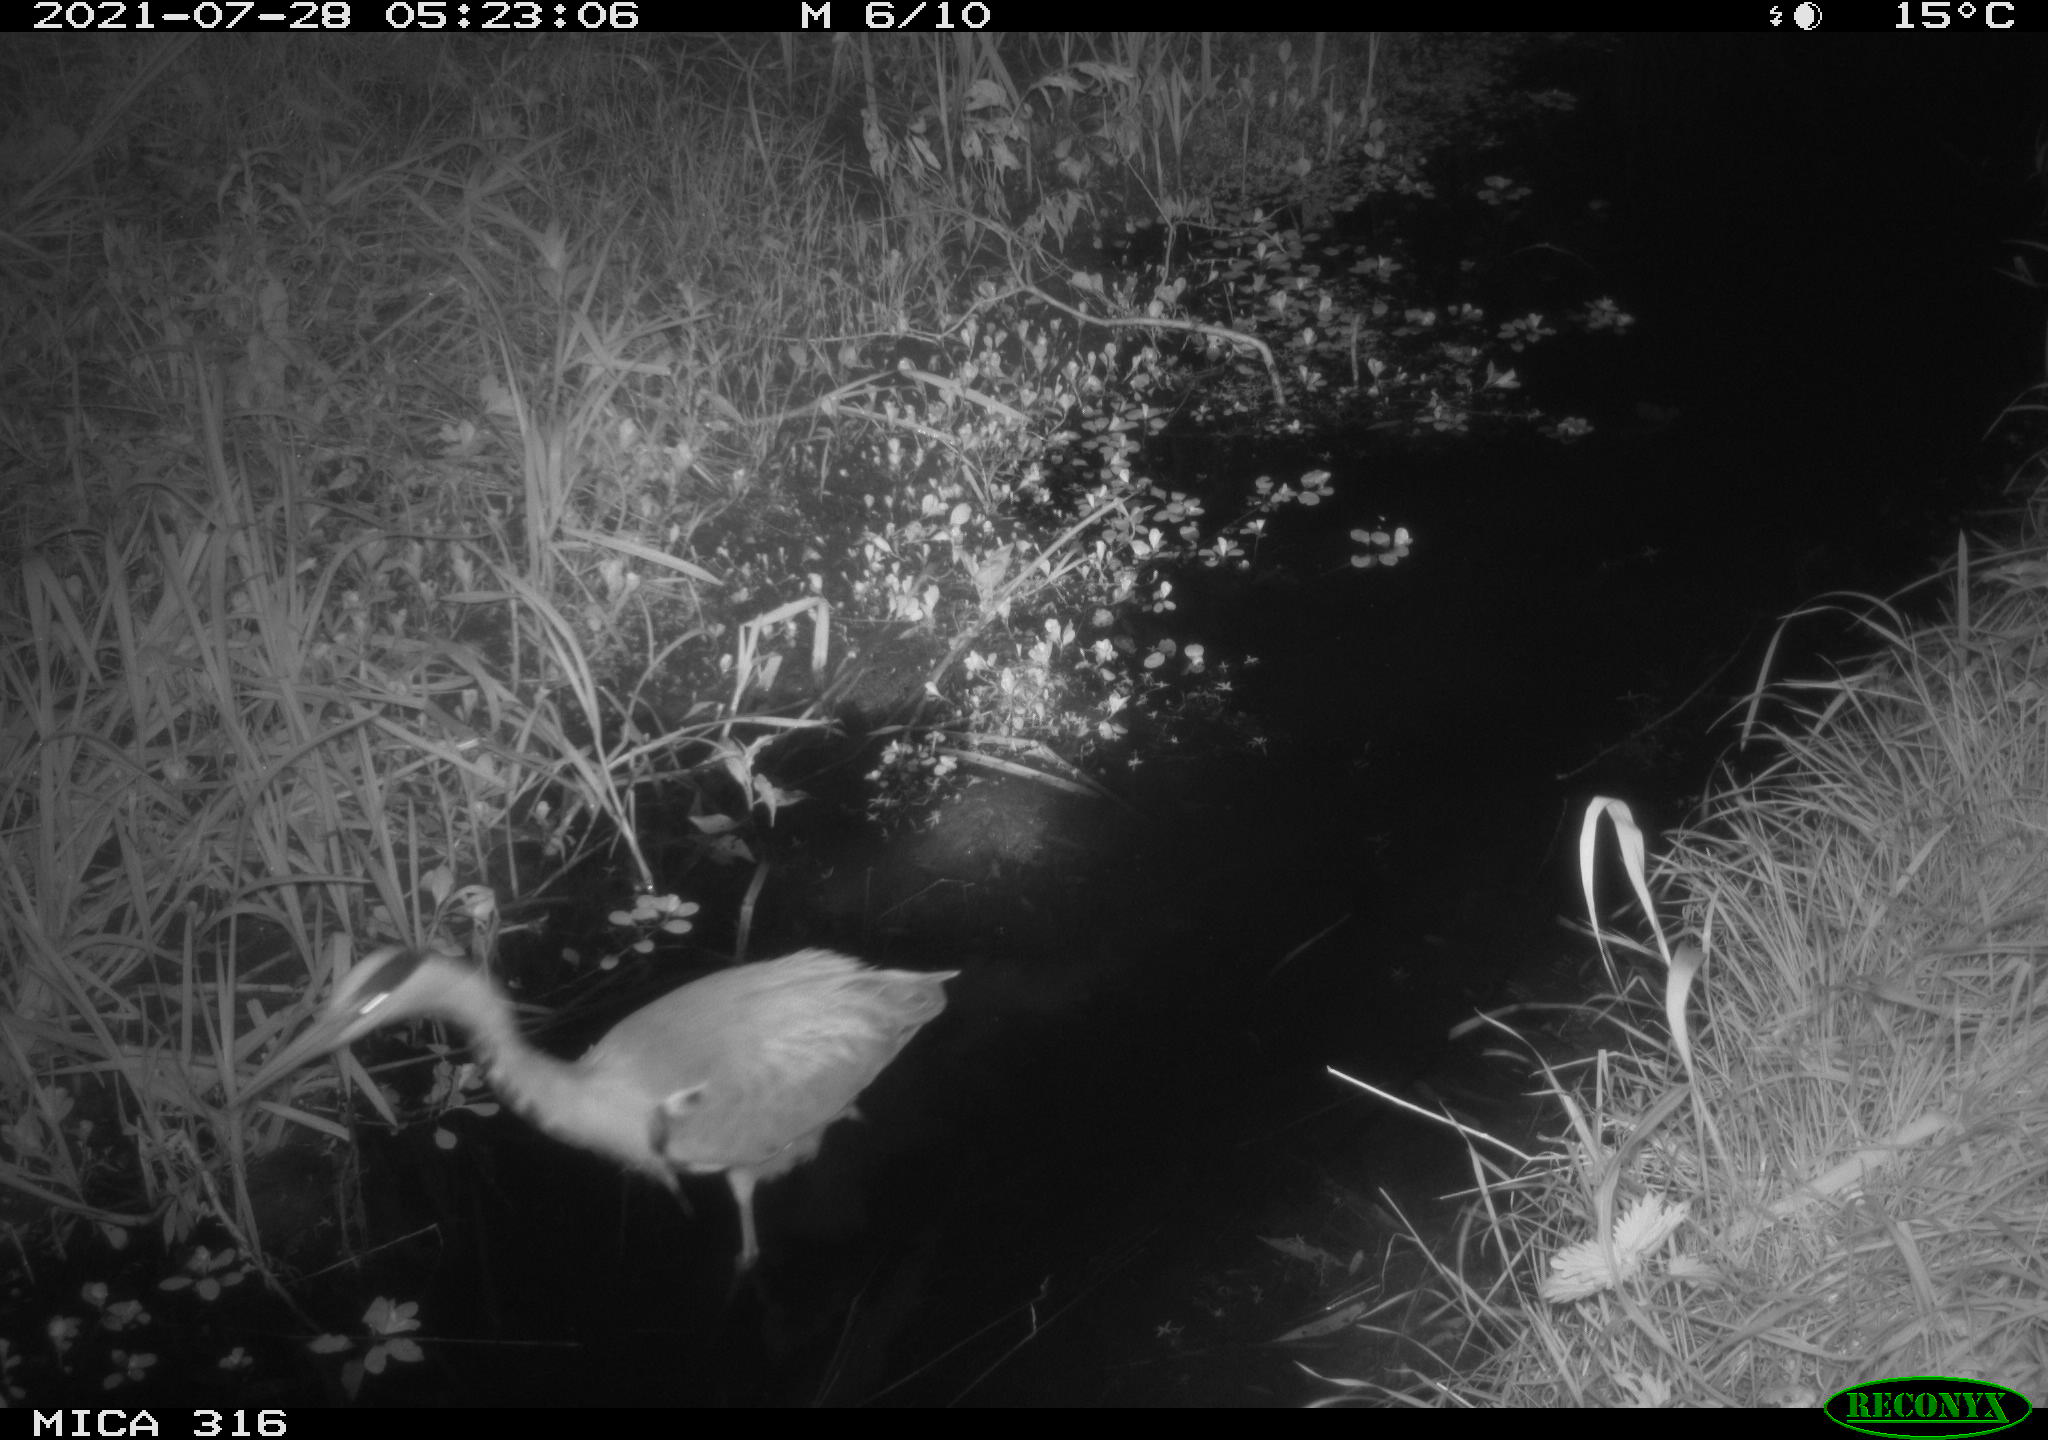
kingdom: Animalia
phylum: Chordata
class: Aves
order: Pelecaniformes
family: Ardeidae
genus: Ardea
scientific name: Ardea
